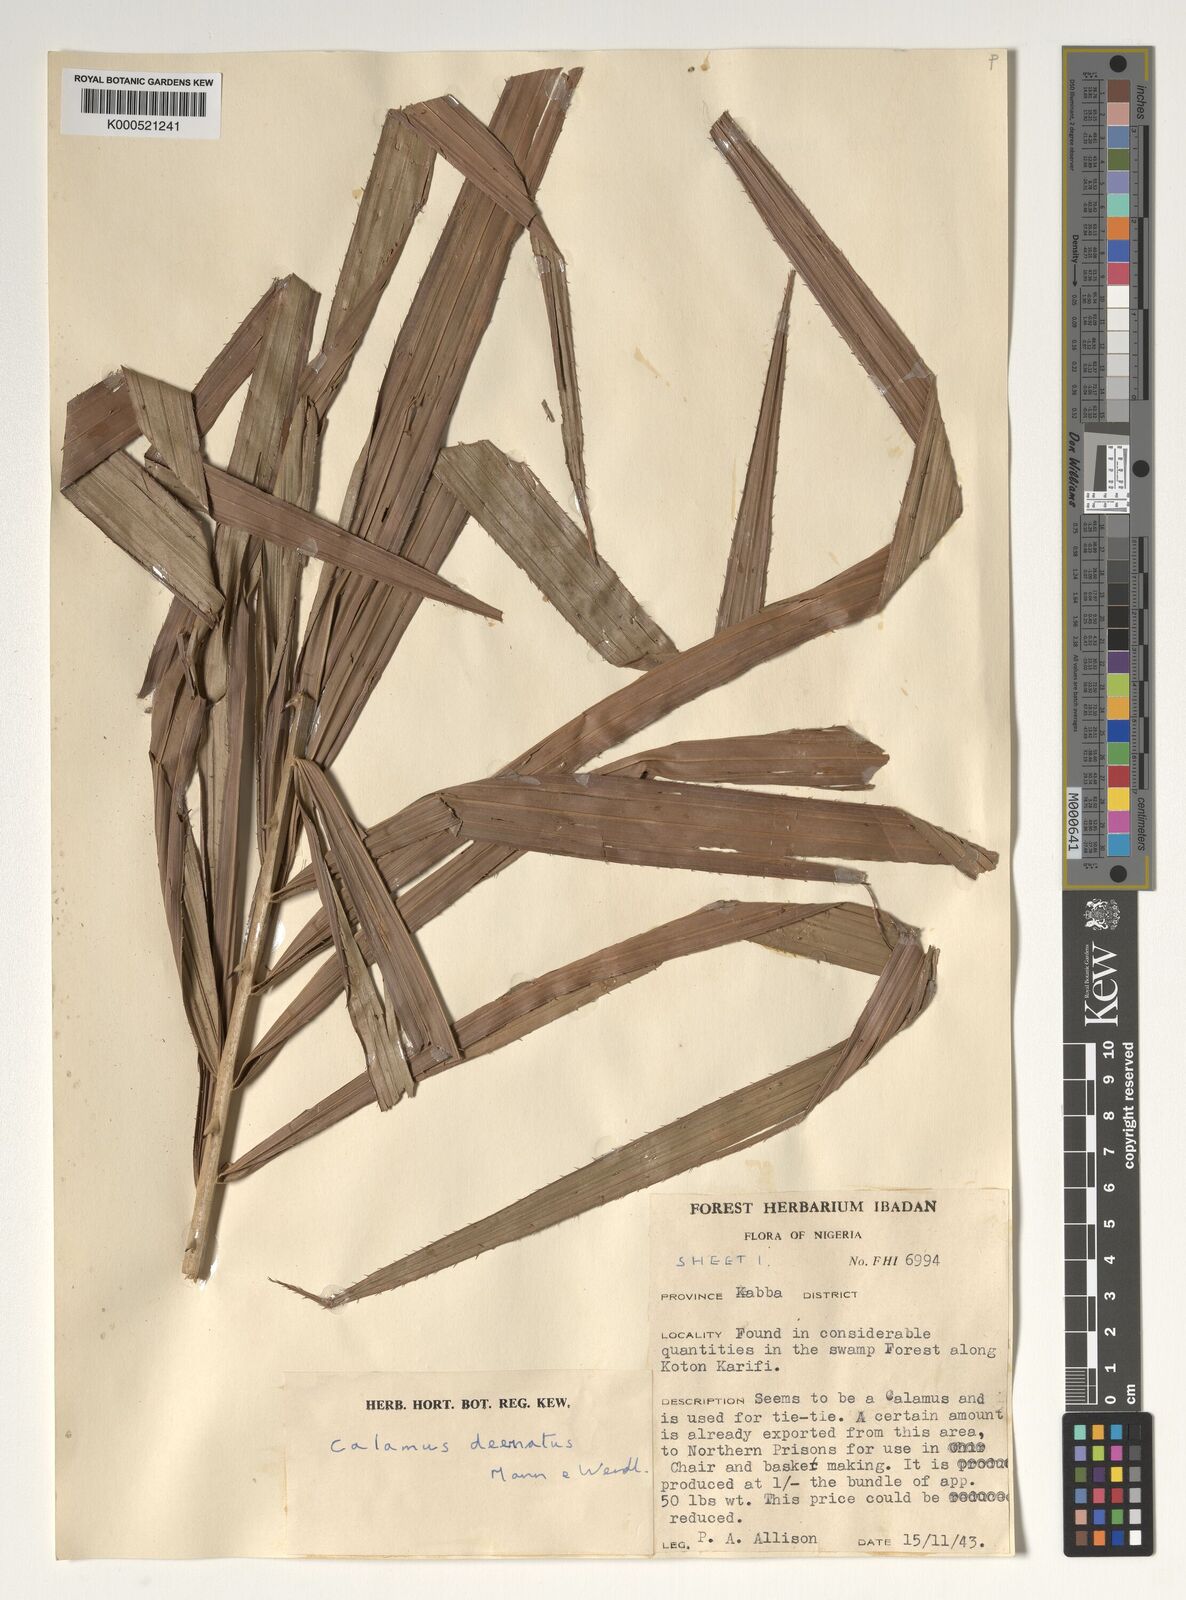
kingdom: Plantae
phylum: Tracheophyta
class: Liliopsida
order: Arecales
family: Arecaceae
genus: Calamus
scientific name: Calamus deerratus
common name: Rattan
